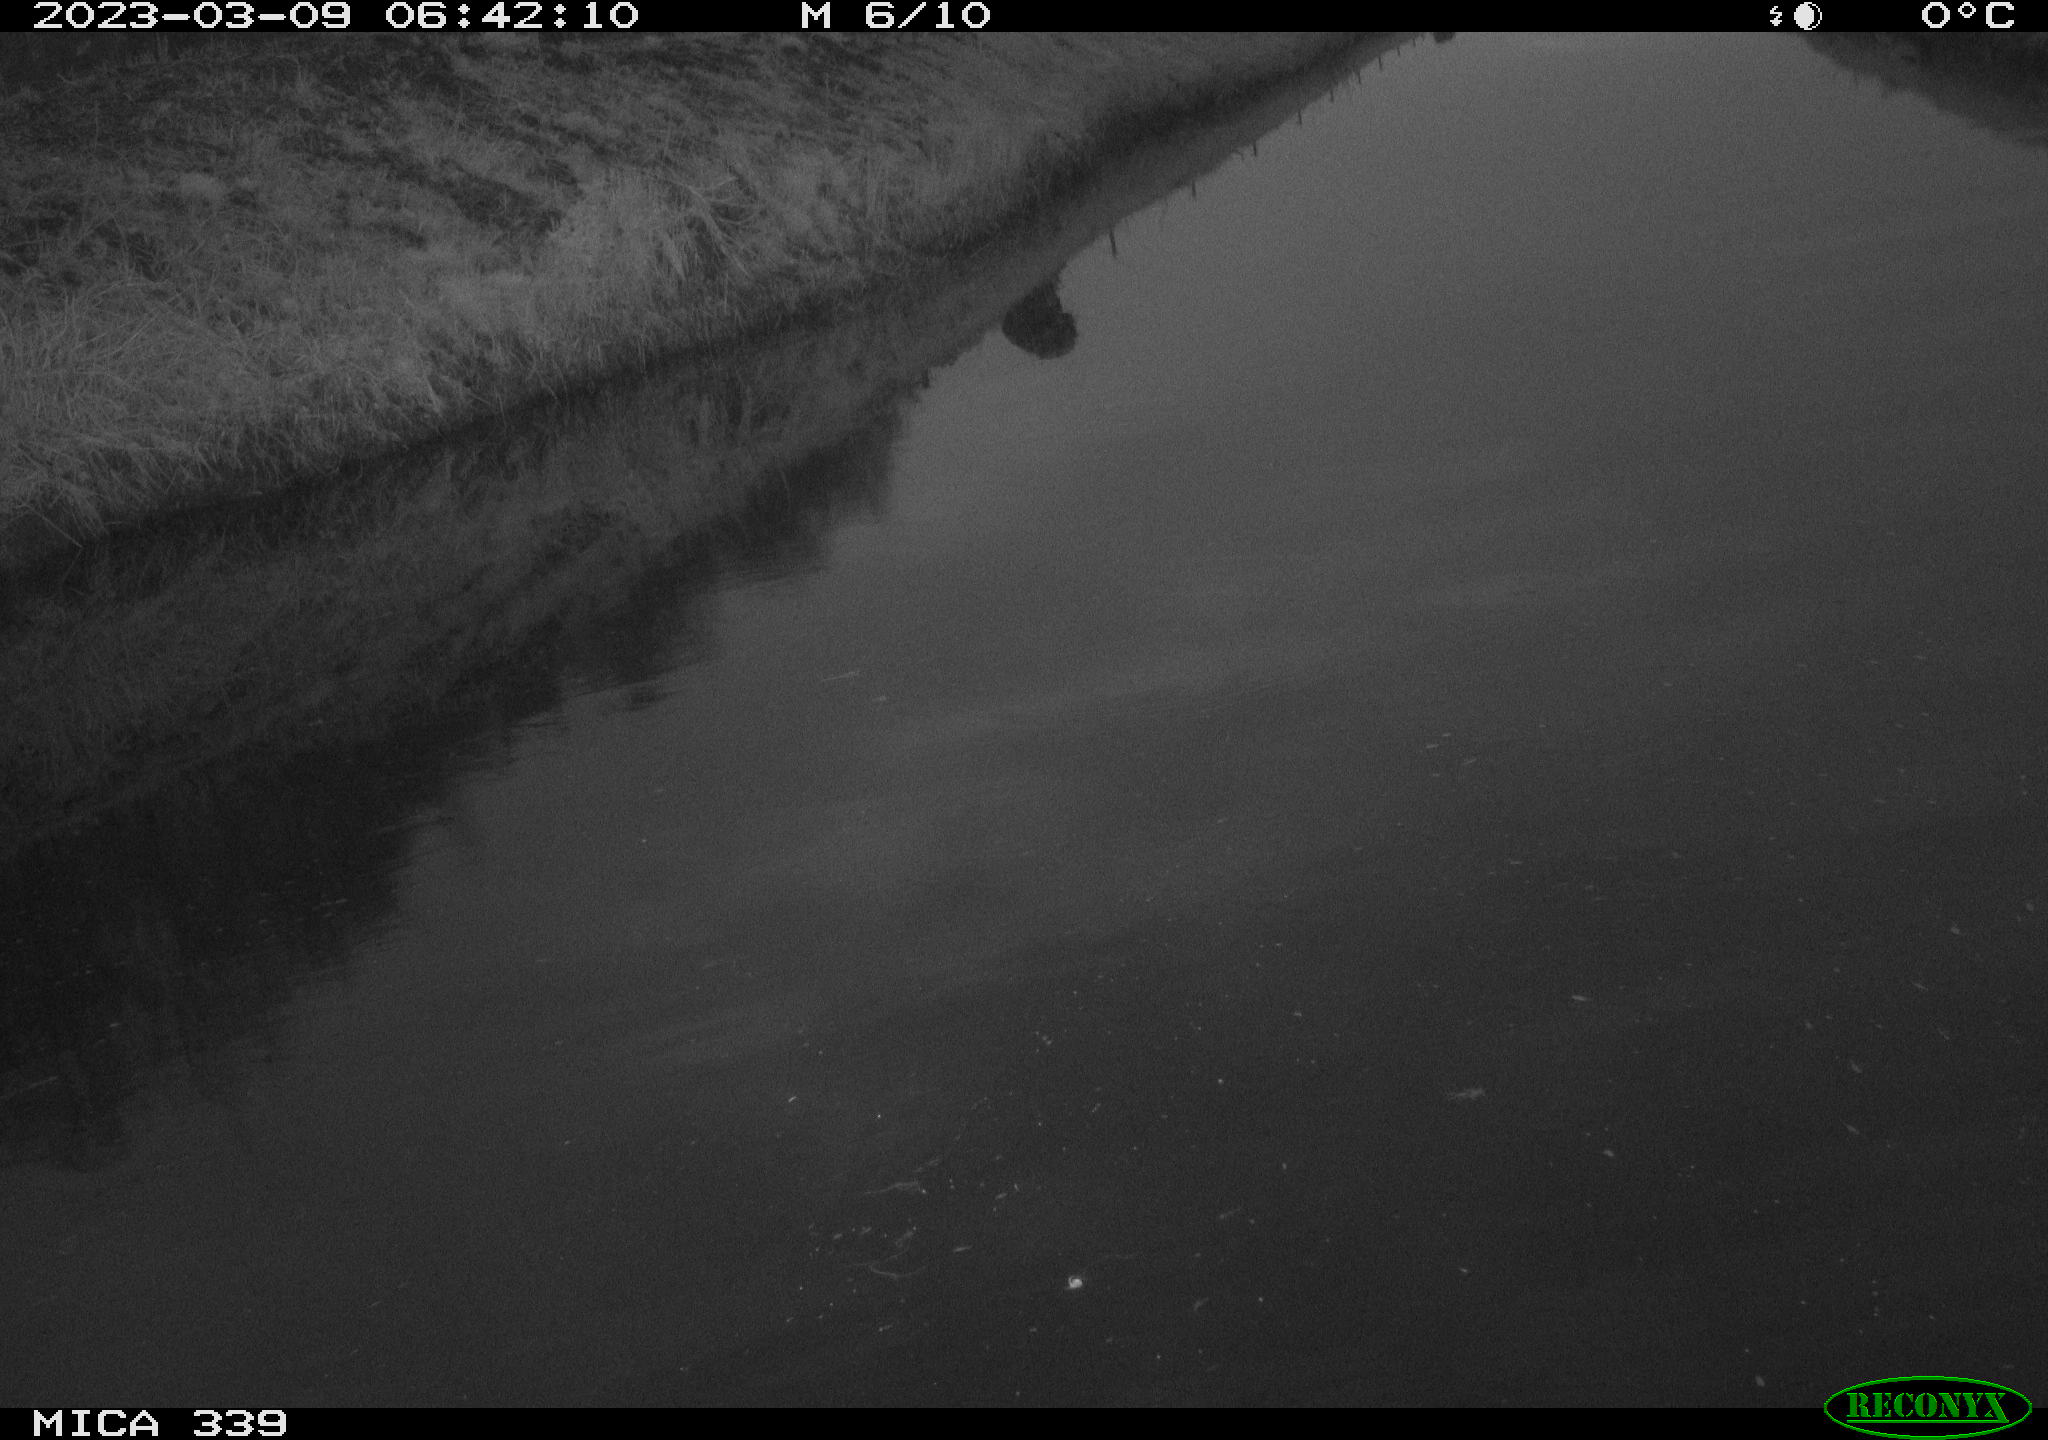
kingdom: Animalia
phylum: Chordata
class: Aves
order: Pelecaniformes
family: Ardeidae
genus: Ardea
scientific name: Ardea cinerea
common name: Grey heron
